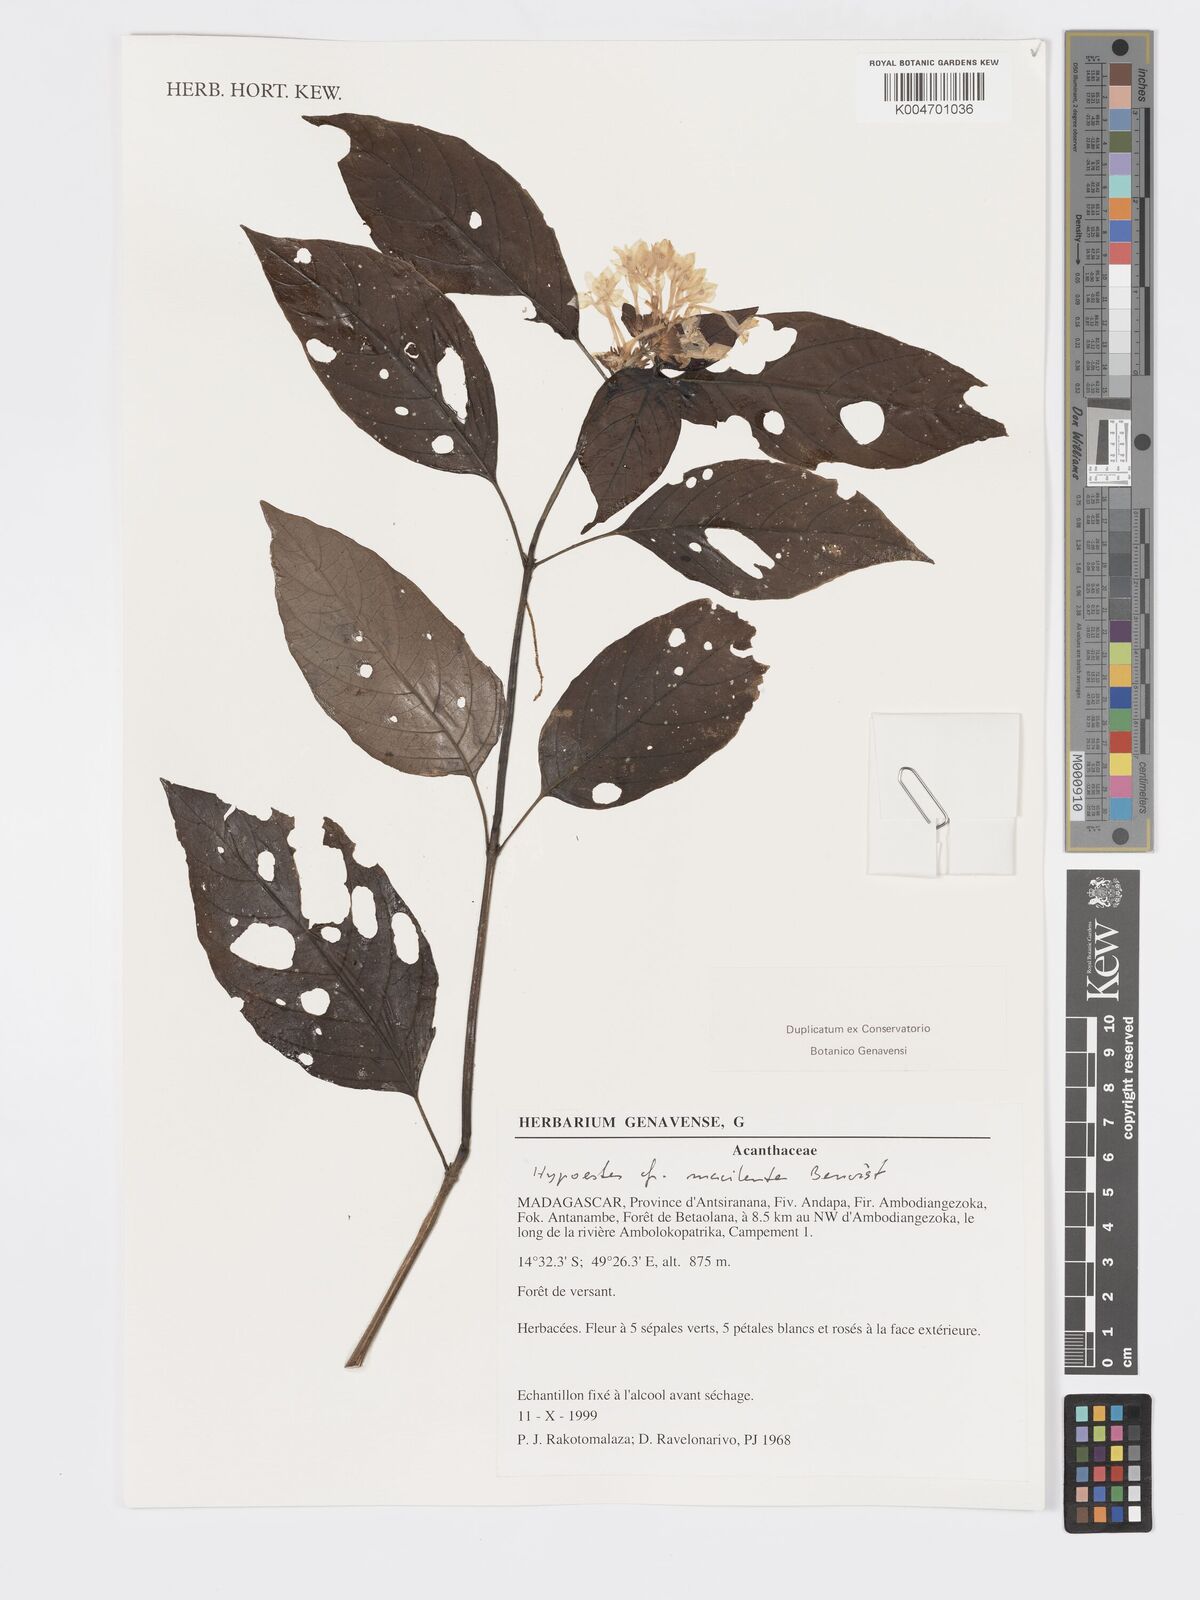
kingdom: Plantae
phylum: Tracheophyta
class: Magnoliopsida
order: Lamiales
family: Acanthaceae
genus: Hypoestes
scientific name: Hypoestes
